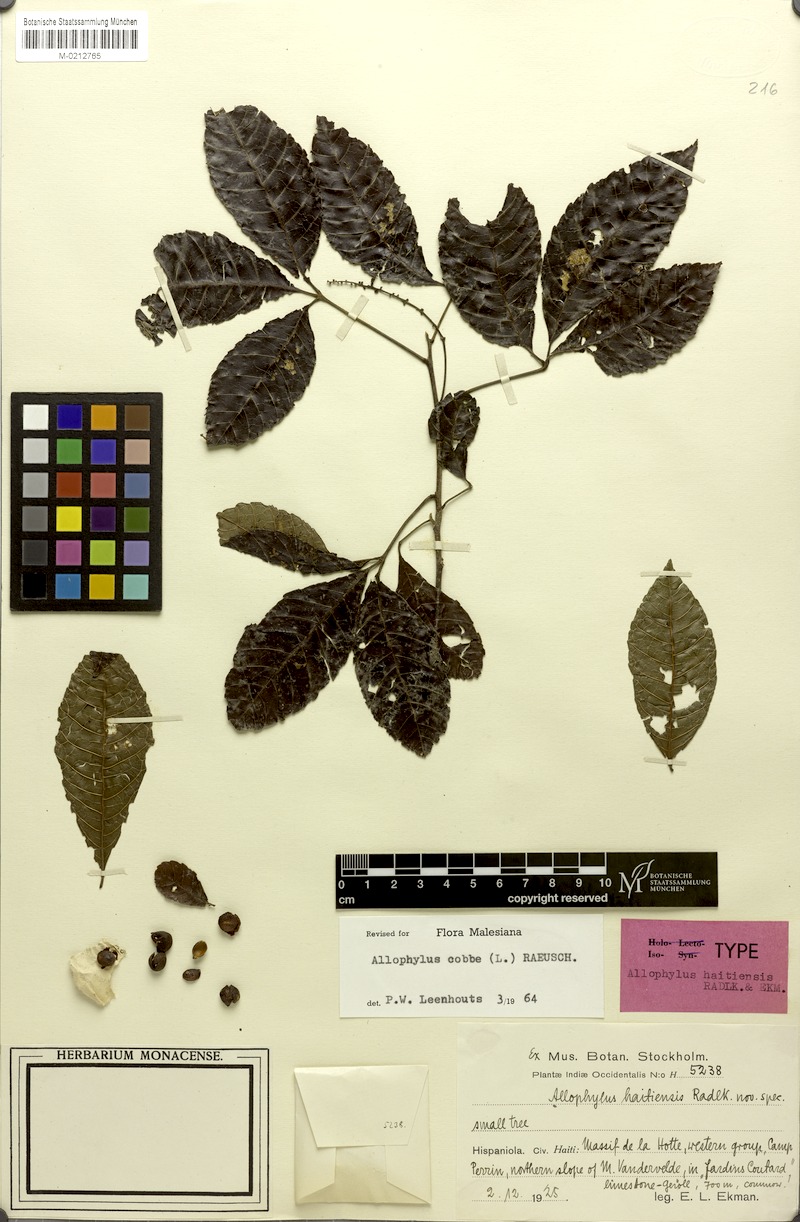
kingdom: Plantae
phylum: Tracheophyta
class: Magnoliopsida
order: Sapindales
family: Sapindaceae
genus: Allophylus
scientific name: Allophylus haitiensis
